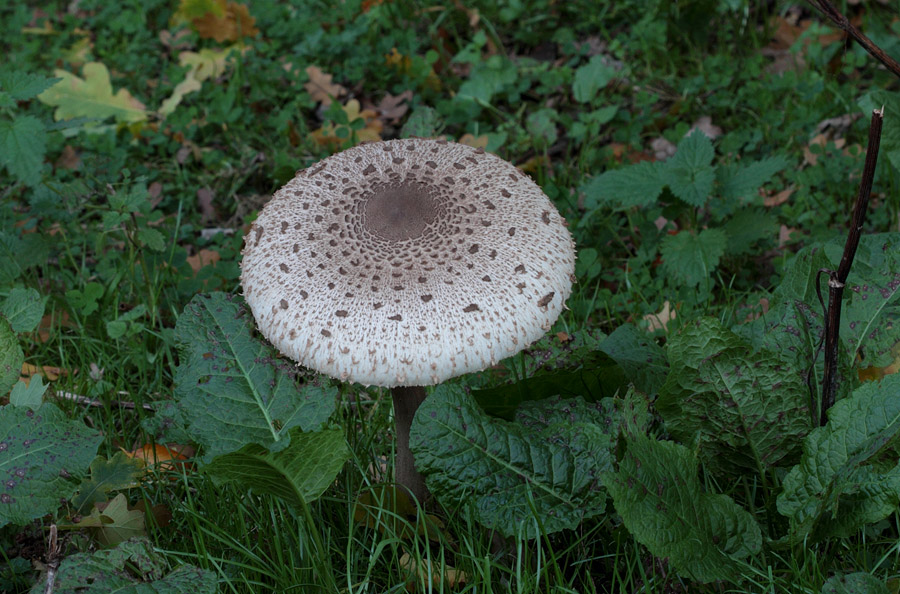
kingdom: Fungi
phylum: Basidiomycota
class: Agaricomycetes
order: Agaricales
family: Agaricaceae
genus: Macrolepiota
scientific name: Macrolepiota procera
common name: stor kæmpeparasolhat
